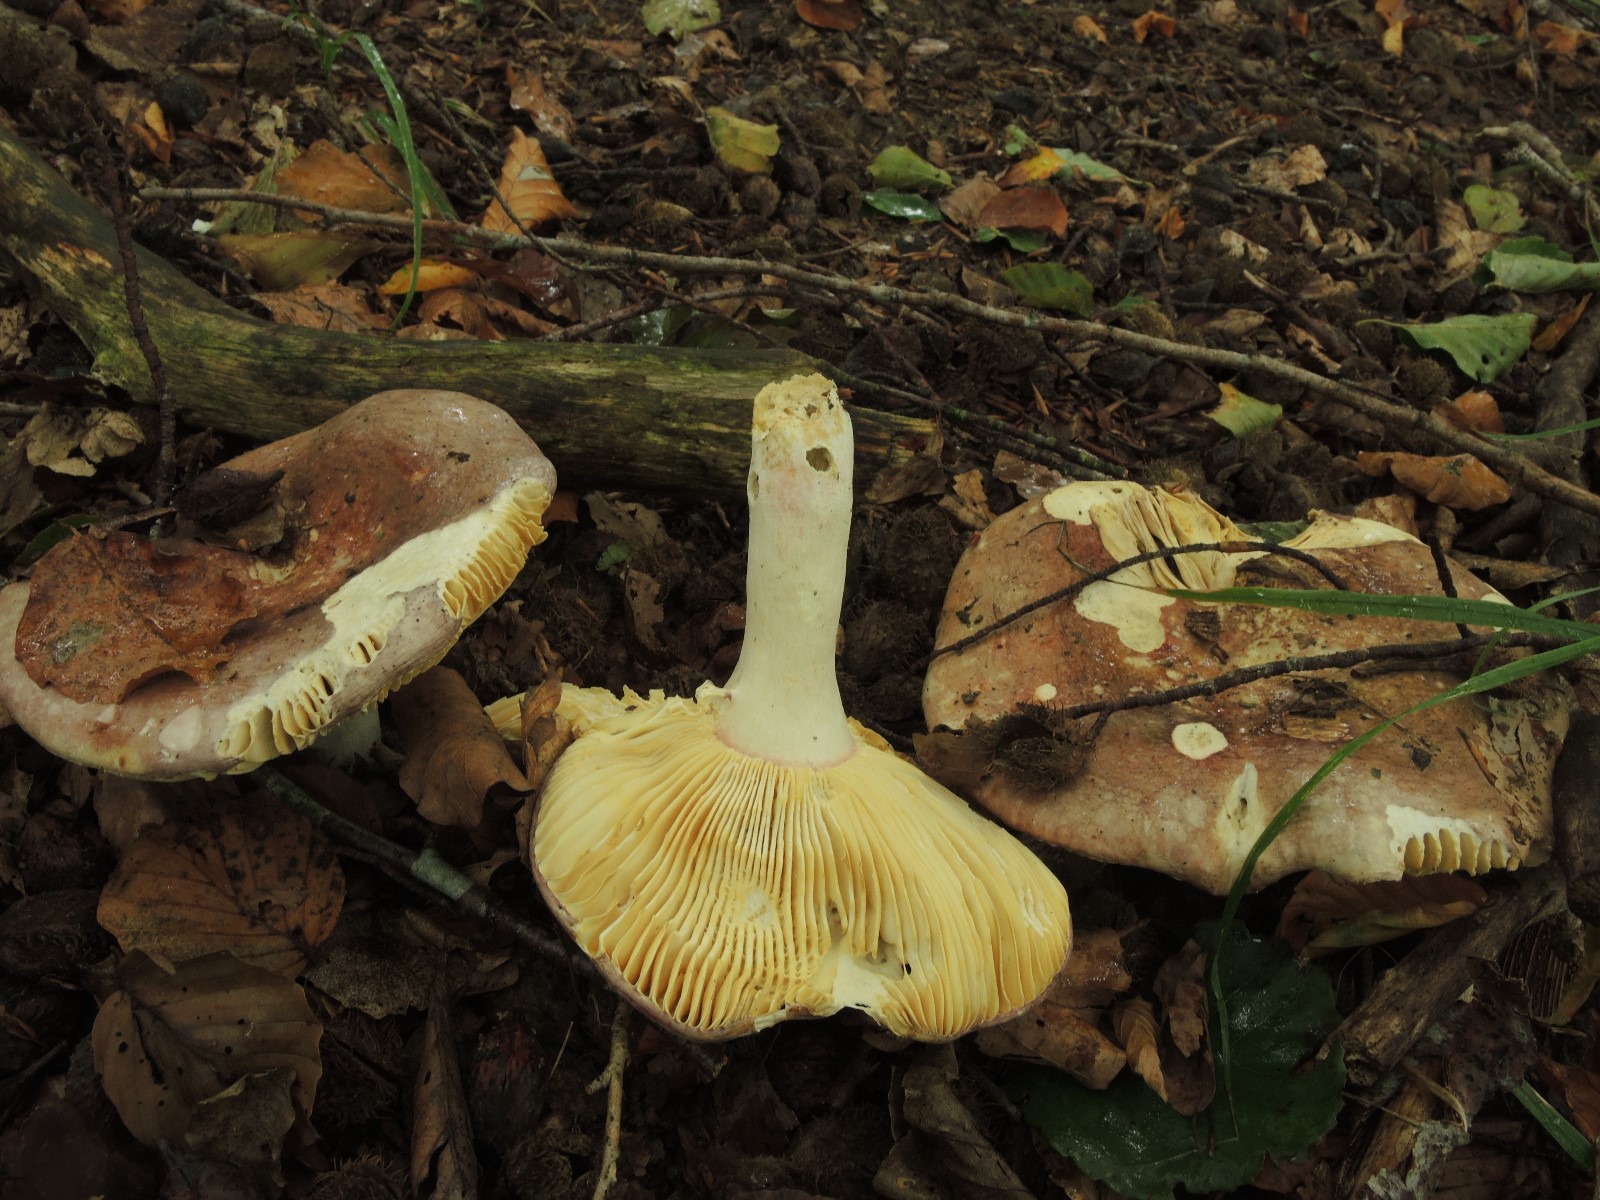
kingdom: Fungi
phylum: Basidiomycota
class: Agaricomycetes
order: Russulales
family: Russulaceae
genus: Russula
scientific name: Russula olivacea
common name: stor skørhat
